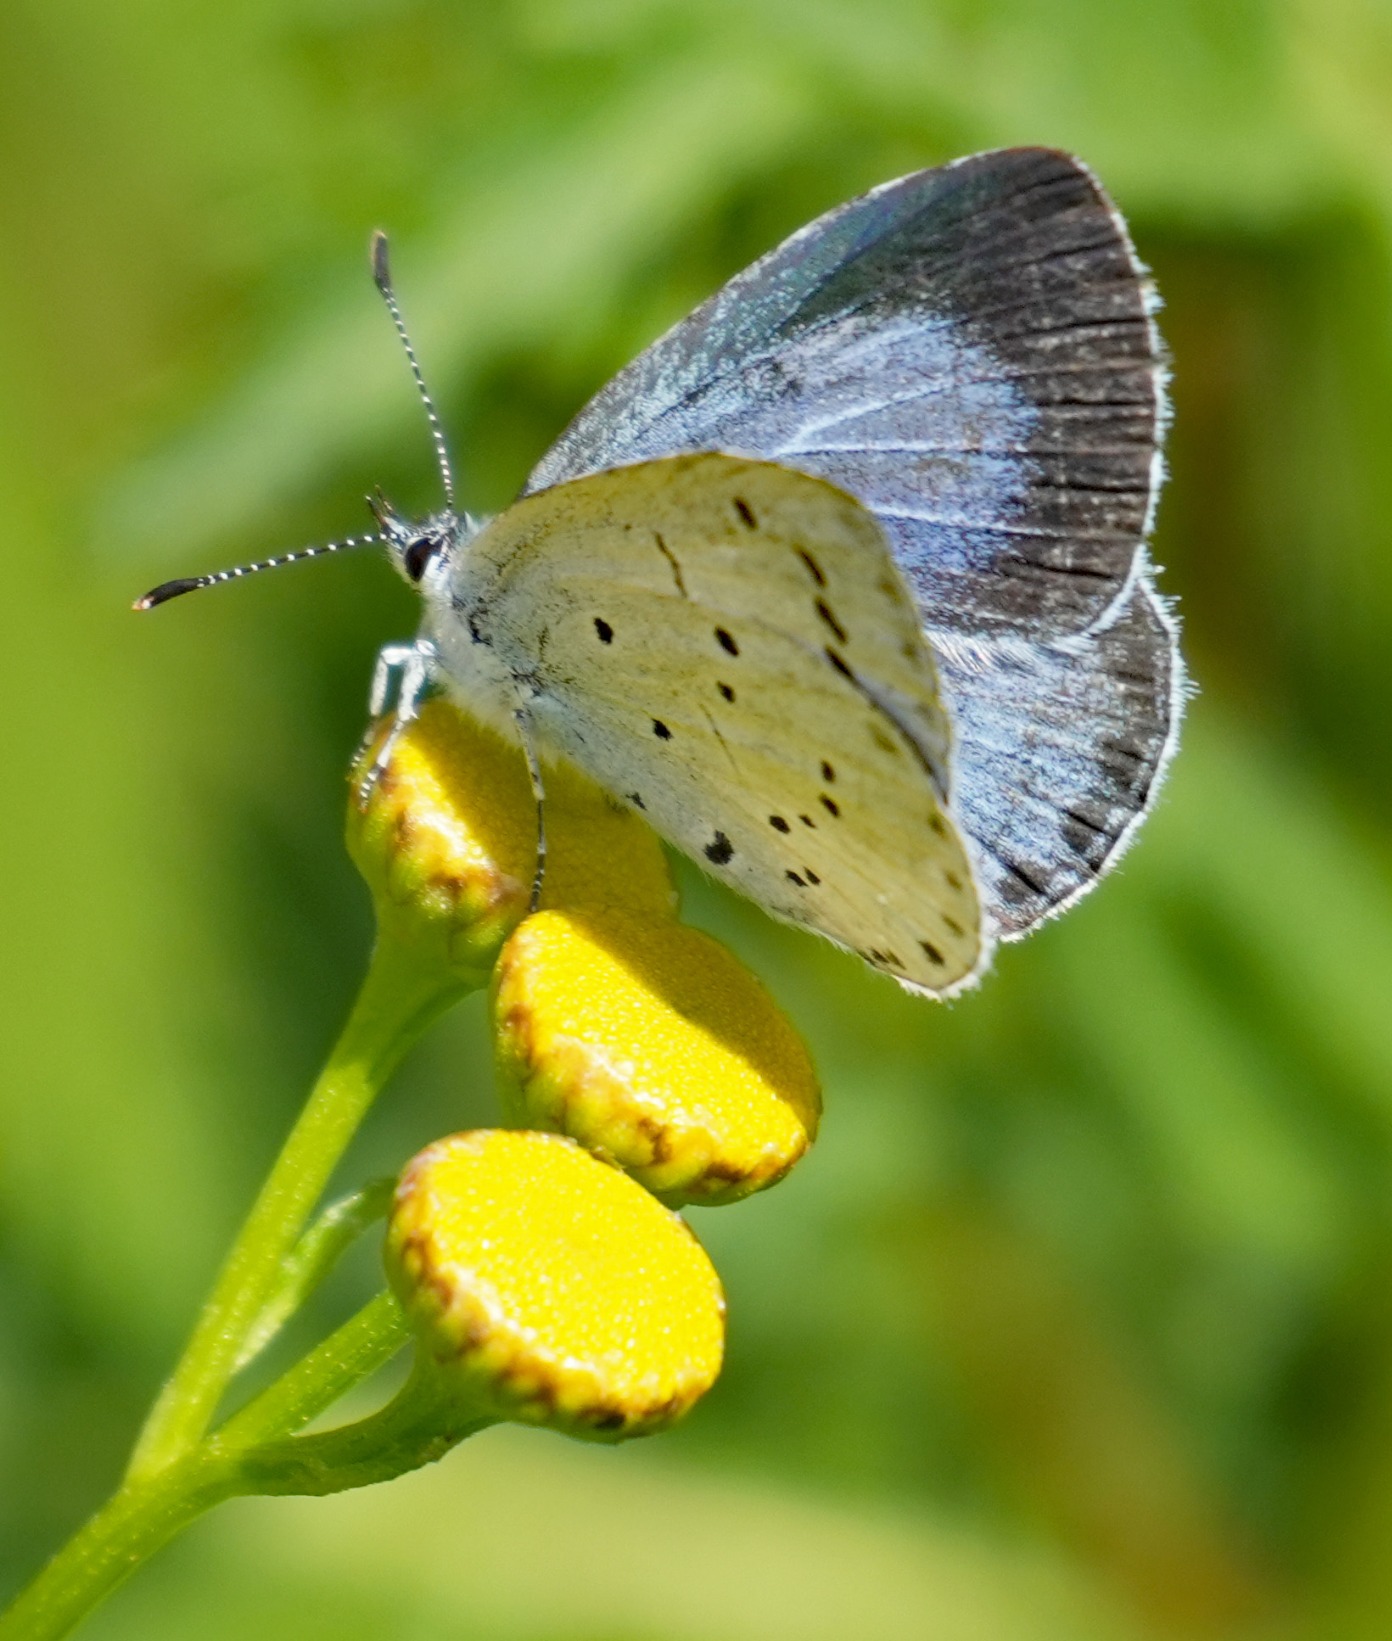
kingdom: Animalia
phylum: Arthropoda
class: Insecta
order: Lepidoptera
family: Lycaenidae
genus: Celastrina
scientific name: Celastrina argiolus
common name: Skovblåfugl
